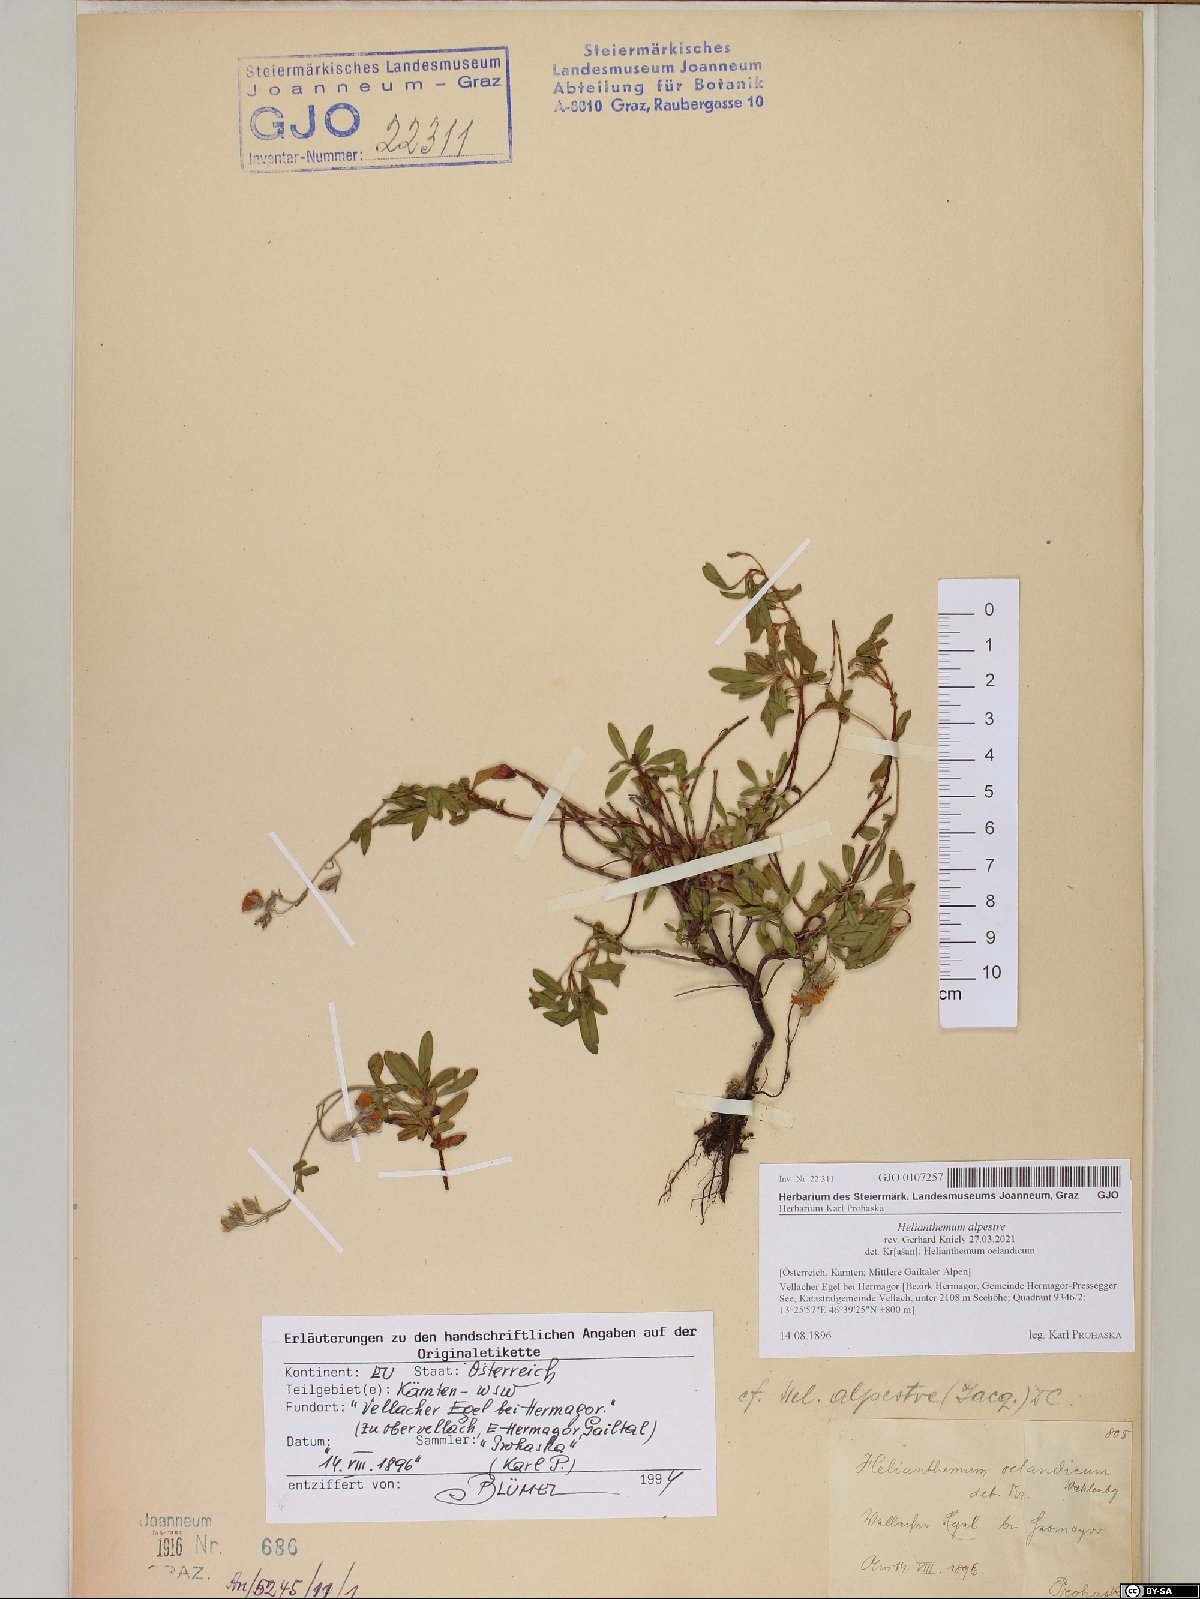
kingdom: Plantae
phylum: Tracheophyta
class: Magnoliopsida
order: Malvales
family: Cistaceae
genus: Helianthemum
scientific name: Helianthemum alpestre
